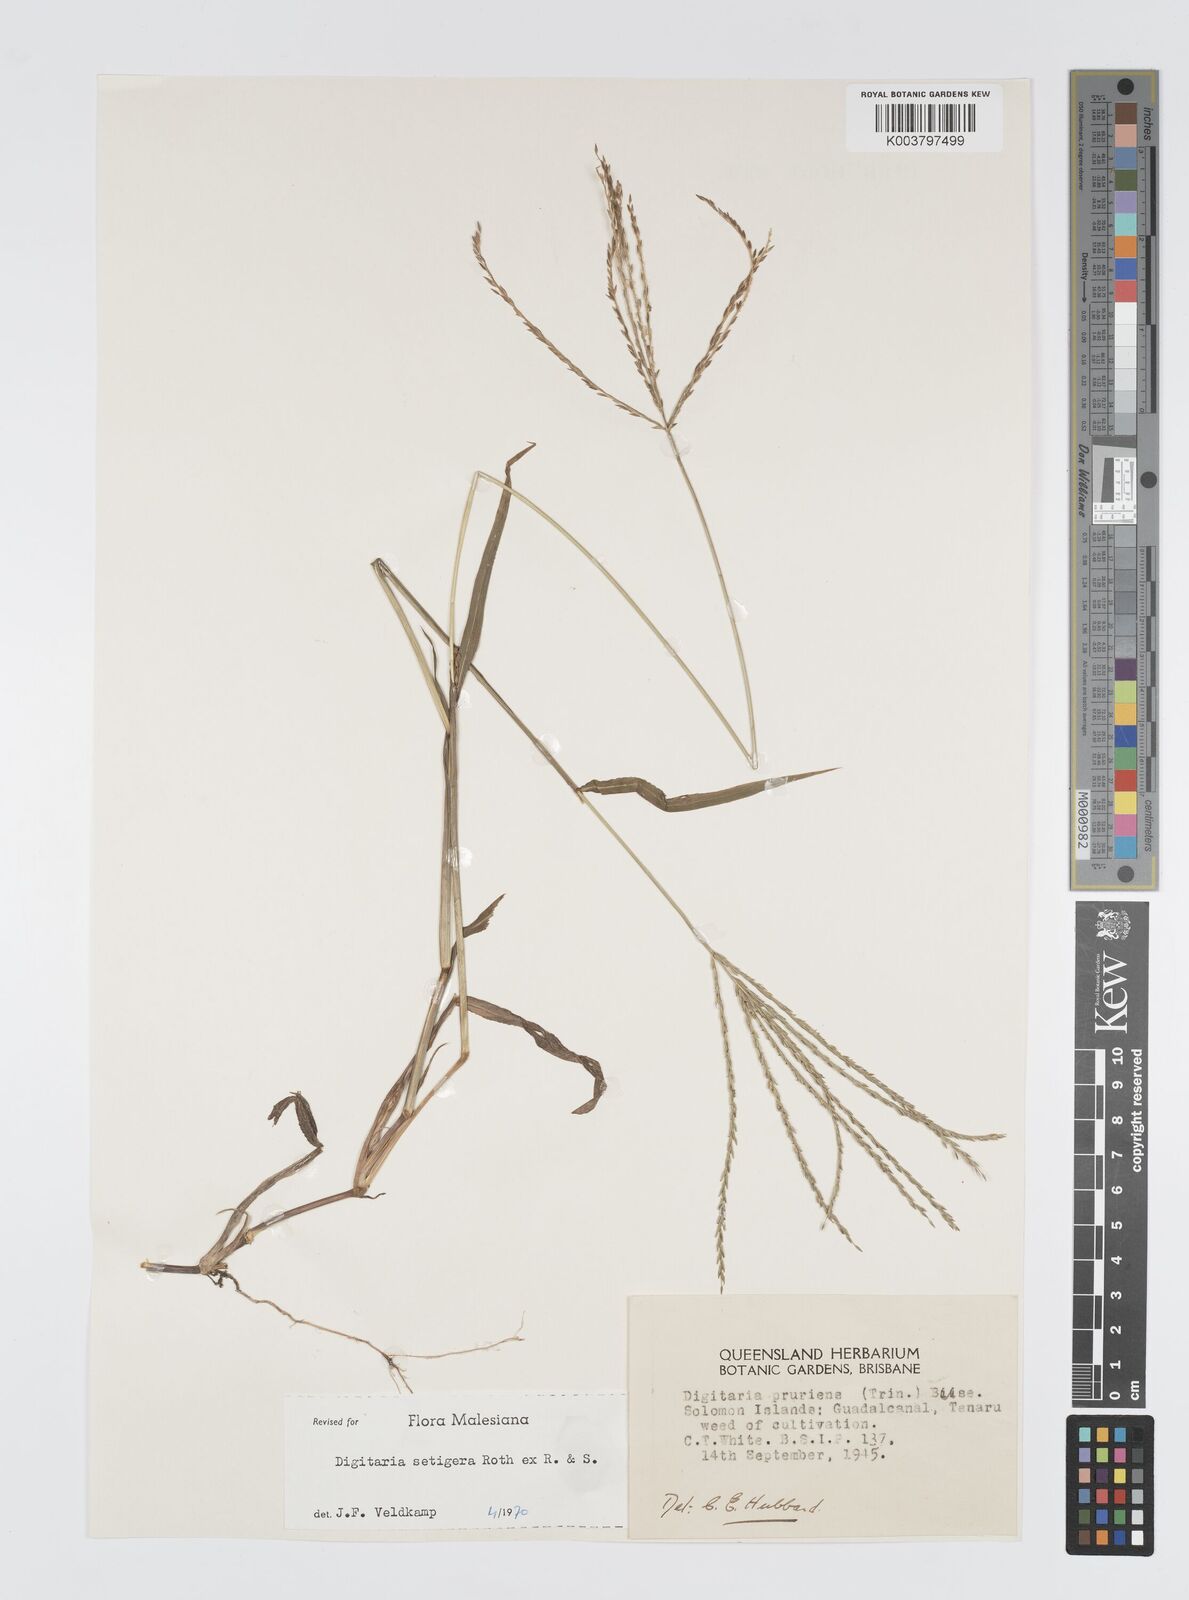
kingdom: Plantae
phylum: Tracheophyta
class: Liliopsida
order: Poales
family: Poaceae
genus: Digitaria
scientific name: Digitaria setigera
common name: East indian crabgrass
